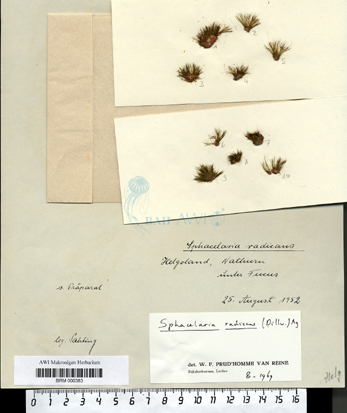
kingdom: Chromista
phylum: Ochrophyta
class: Phaeophyceae
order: Sphacelariales
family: Stypocaulaceae
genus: Protohalopteris
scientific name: Protohalopteris radicans
